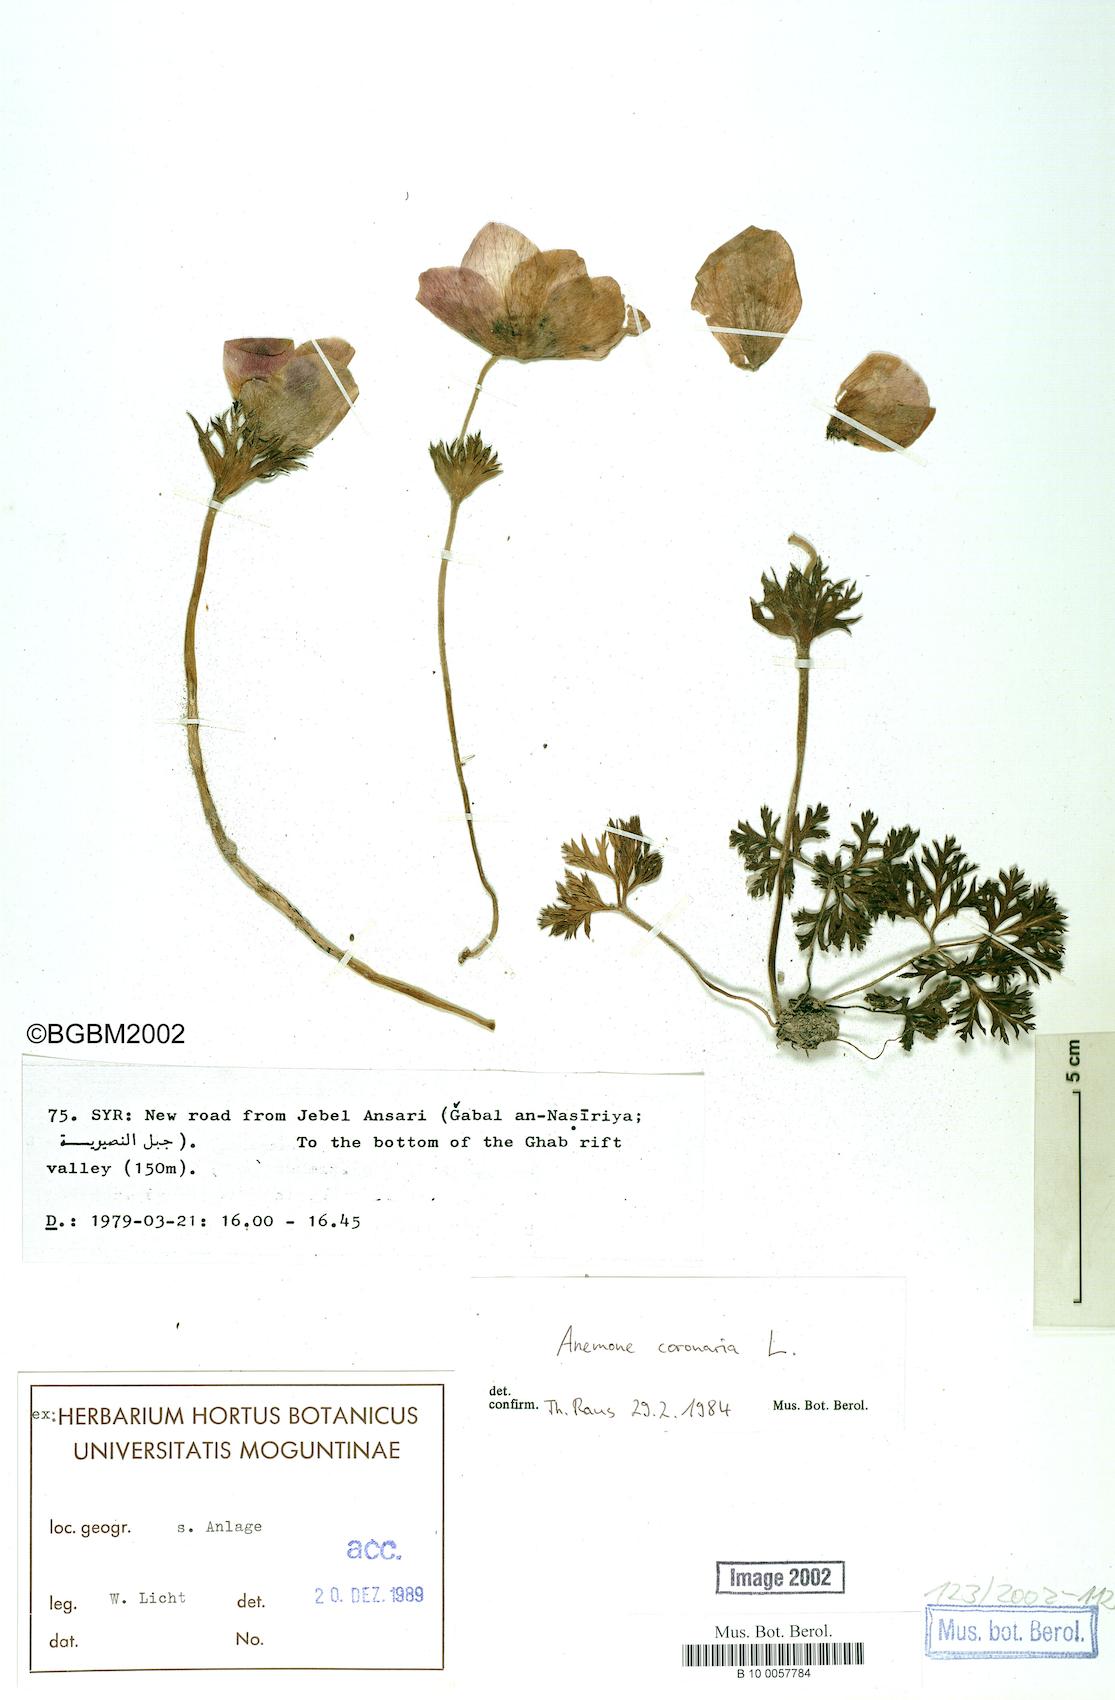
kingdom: Plantae
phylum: Tracheophyta
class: Magnoliopsida
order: Ranunculales
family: Ranunculaceae
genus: Anemone
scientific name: Anemone coronaria
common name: Poppy anemone
